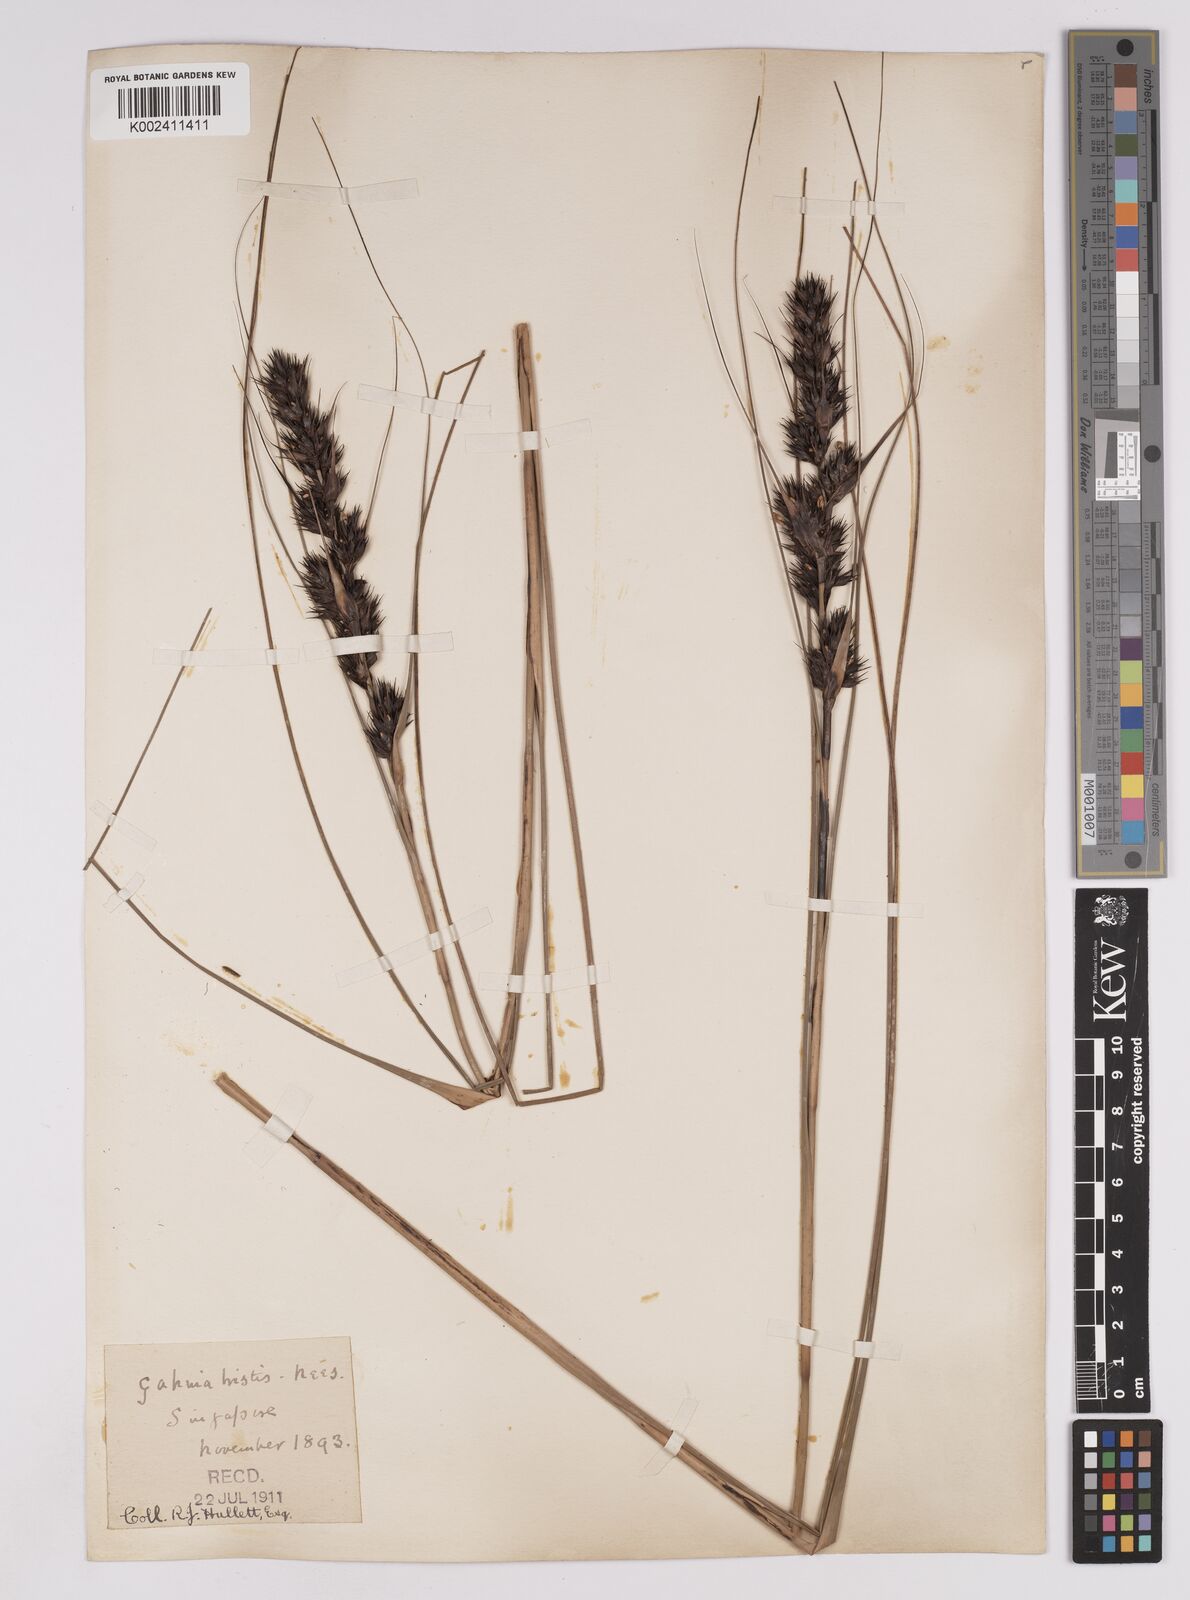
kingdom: Plantae
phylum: Tracheophyta
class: Liliopsida
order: Poales
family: Cyperaceae
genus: Gahnia
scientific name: Gahnia tristis
